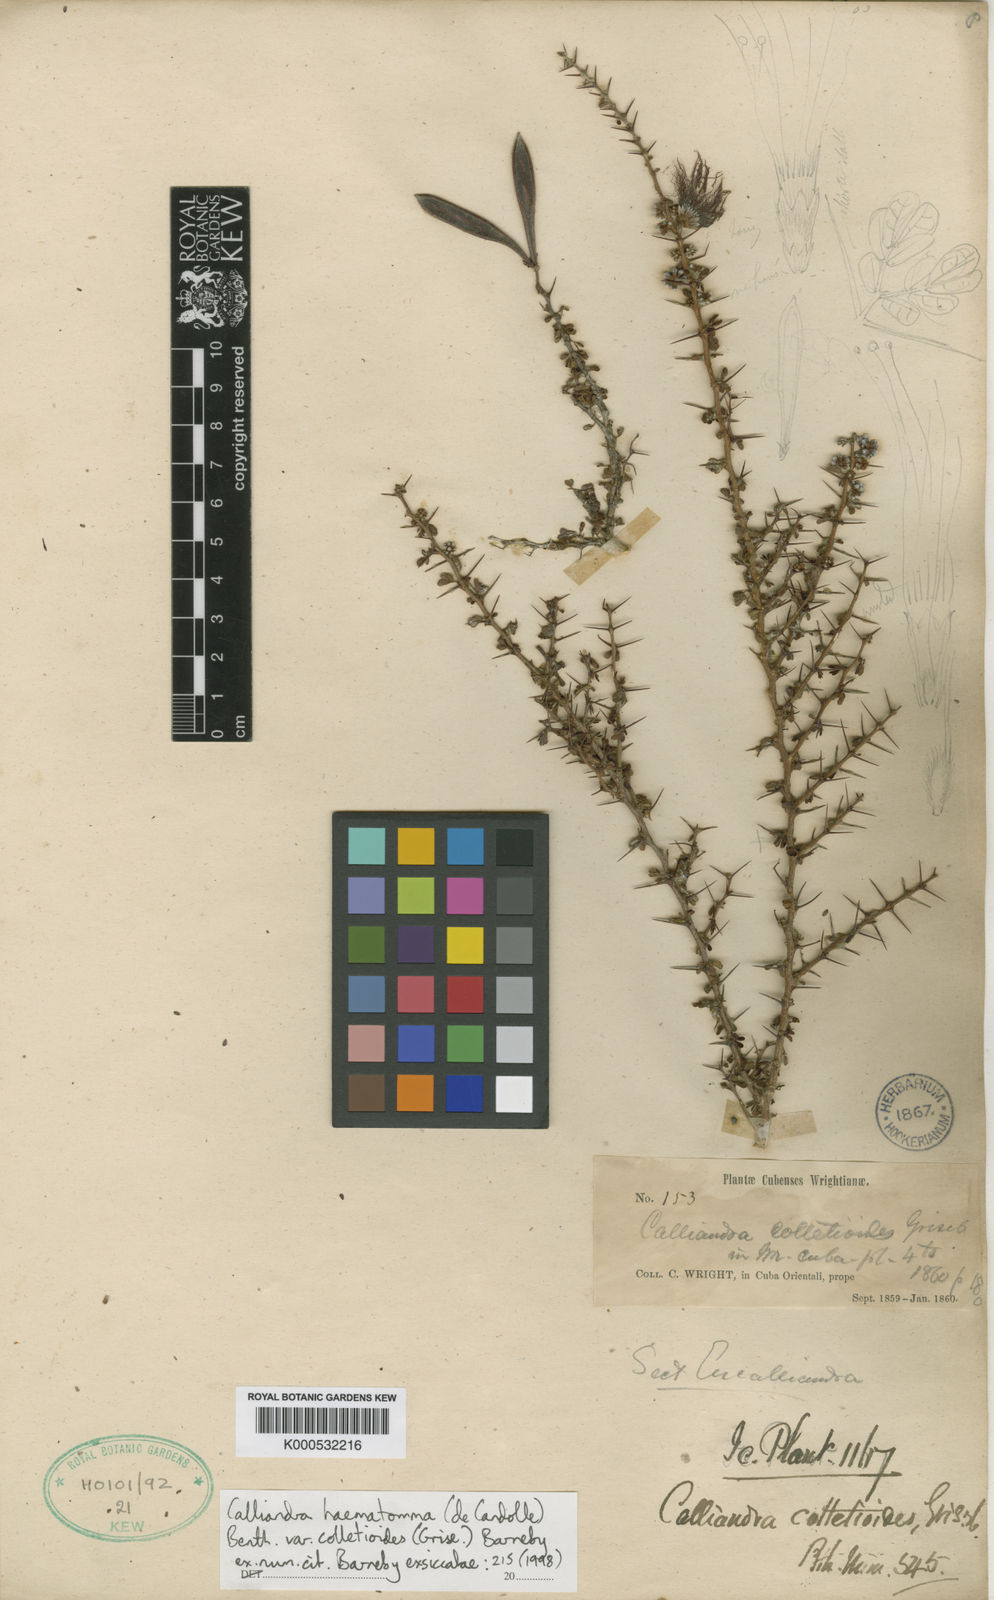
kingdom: Plantae
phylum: Tracheophyta
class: Magnoliopsida
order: Fabales
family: Fabaceae
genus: Calliandra
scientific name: Calliandra haematomma
